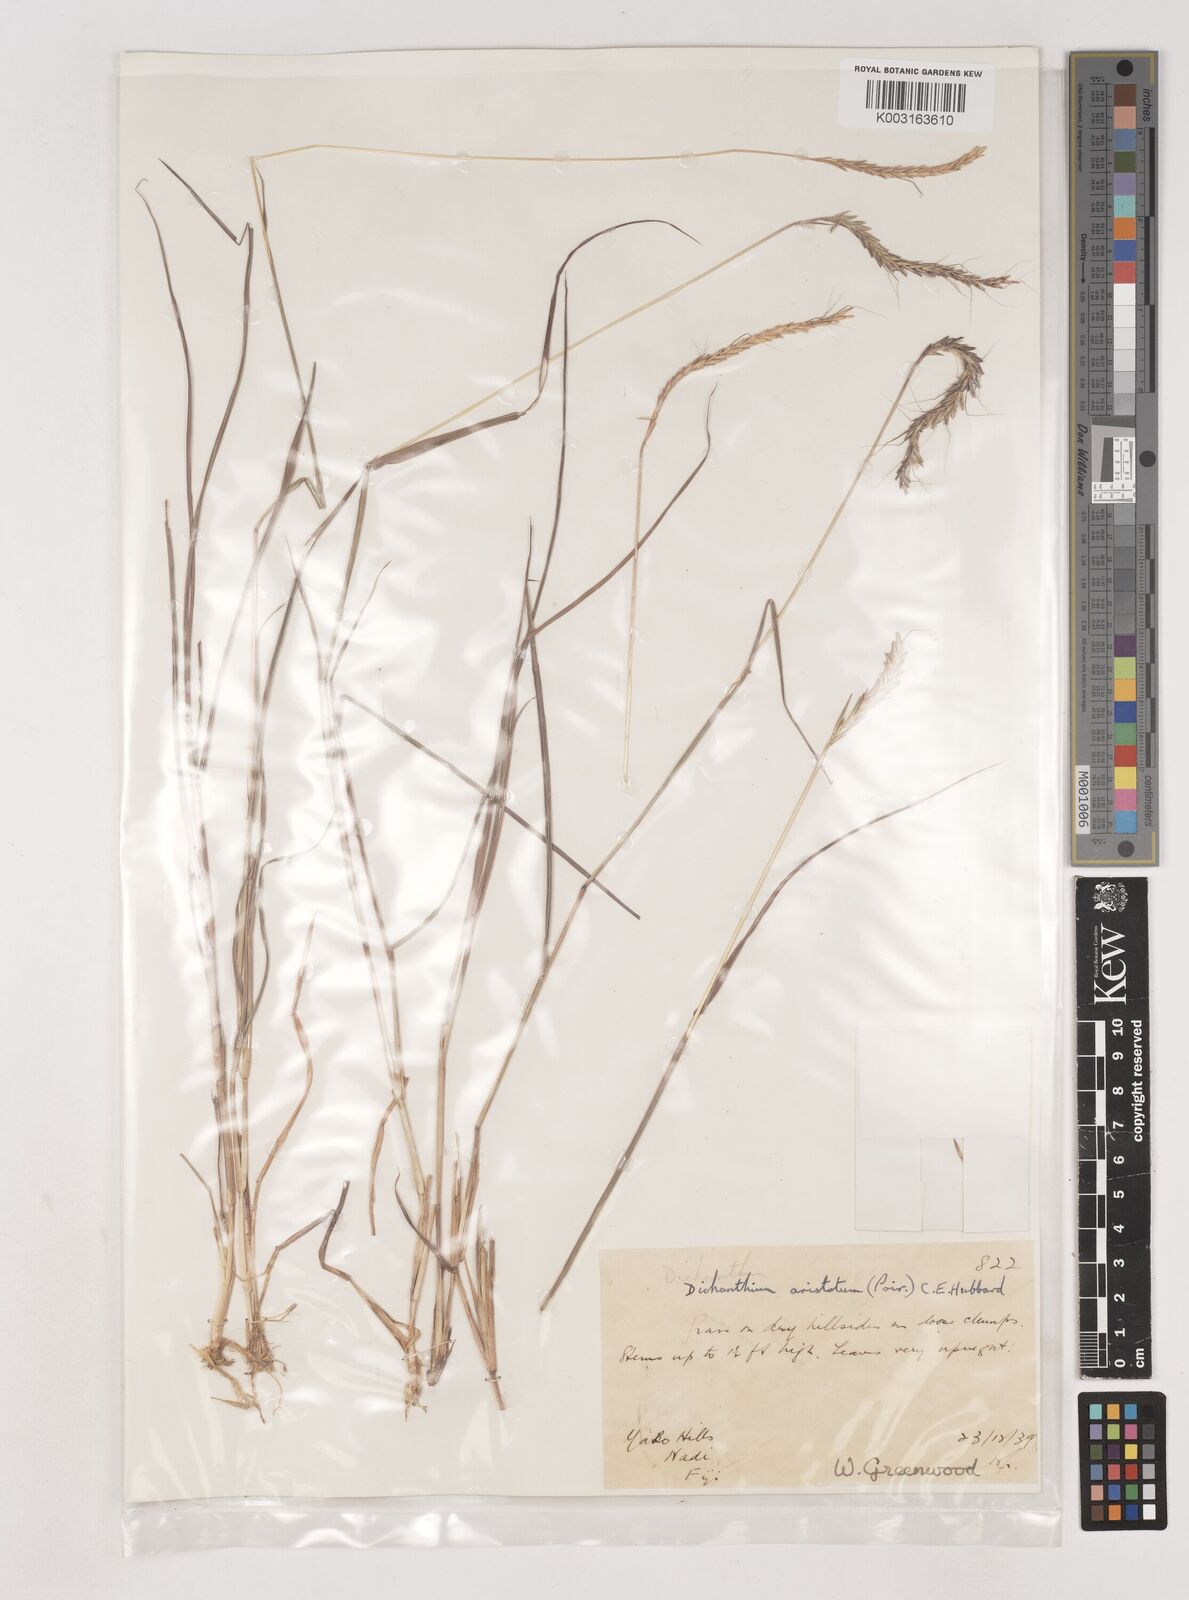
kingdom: Plantae
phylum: Tracheophyta
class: Liliopsida
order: Poales
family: Poaceae
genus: Dichanthium
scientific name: Dichanthium aristatum
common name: Angleton bluestem
